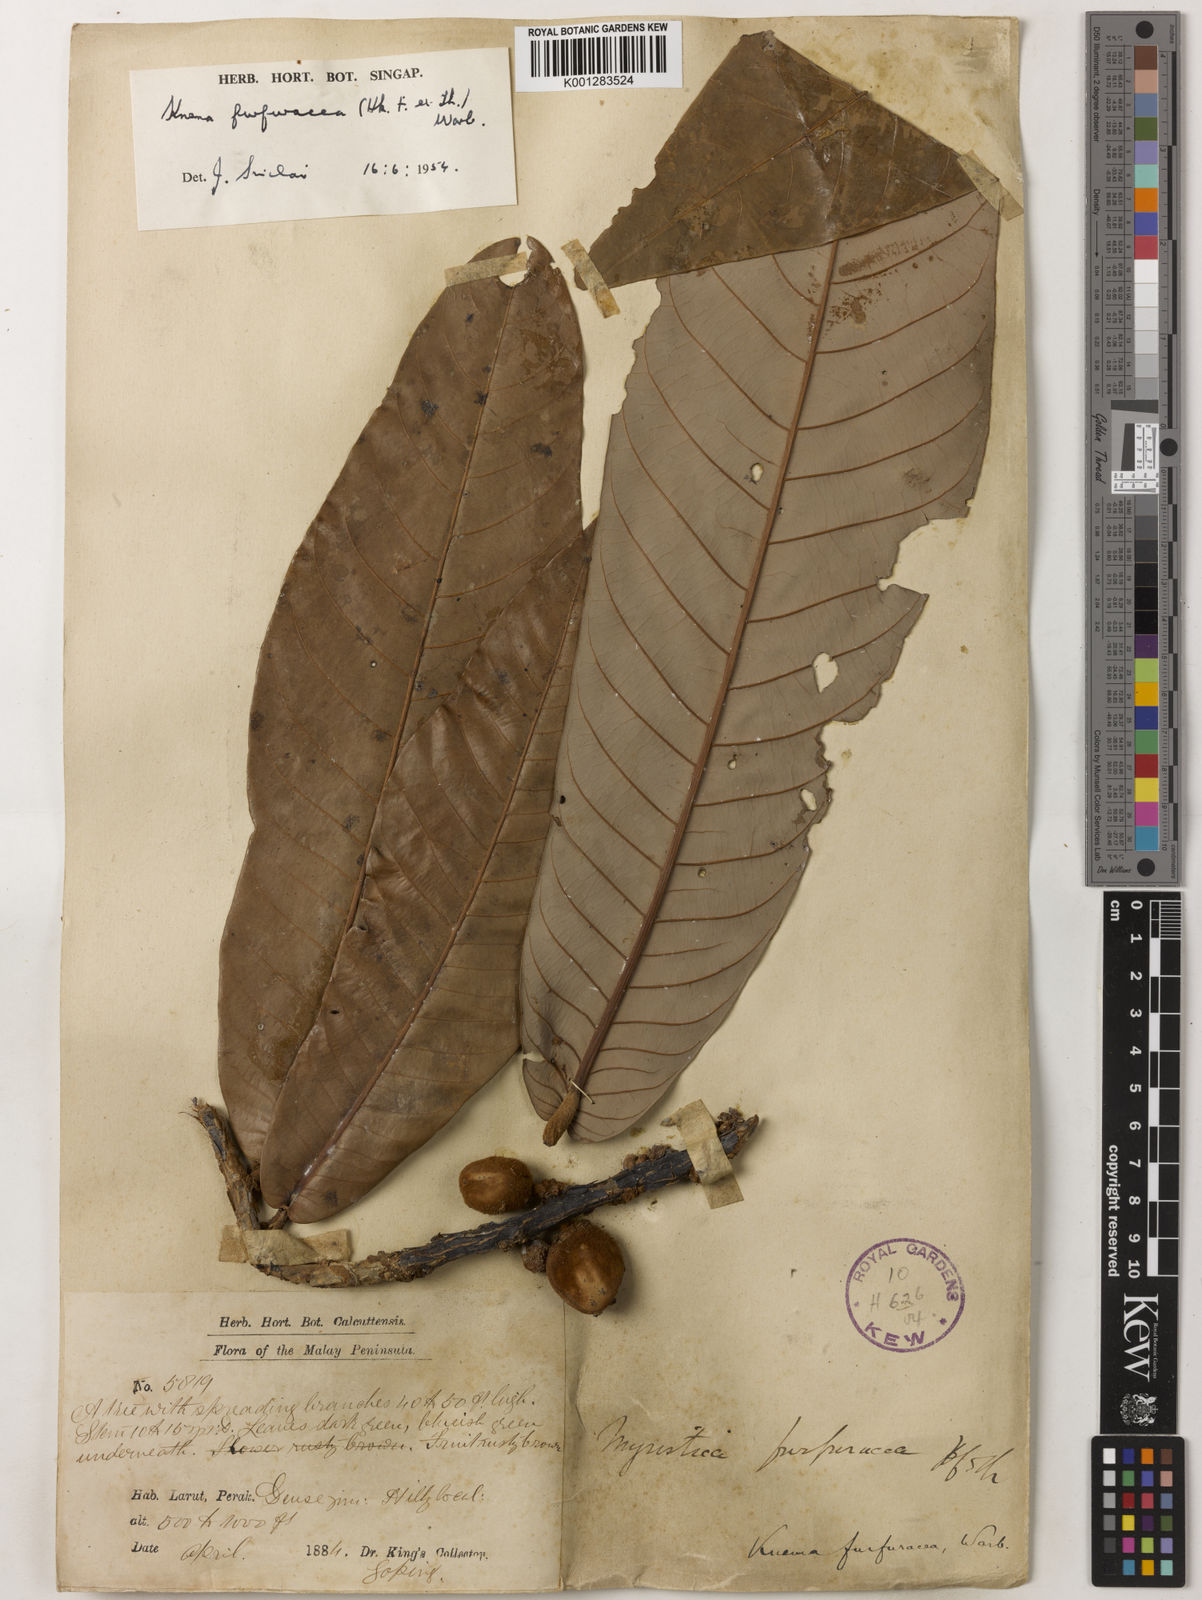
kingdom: Plantae
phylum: Tracheophyta
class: Magnoliopsida
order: Magnoliales
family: Myristicaceae
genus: Knema
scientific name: Knema furfuracea
